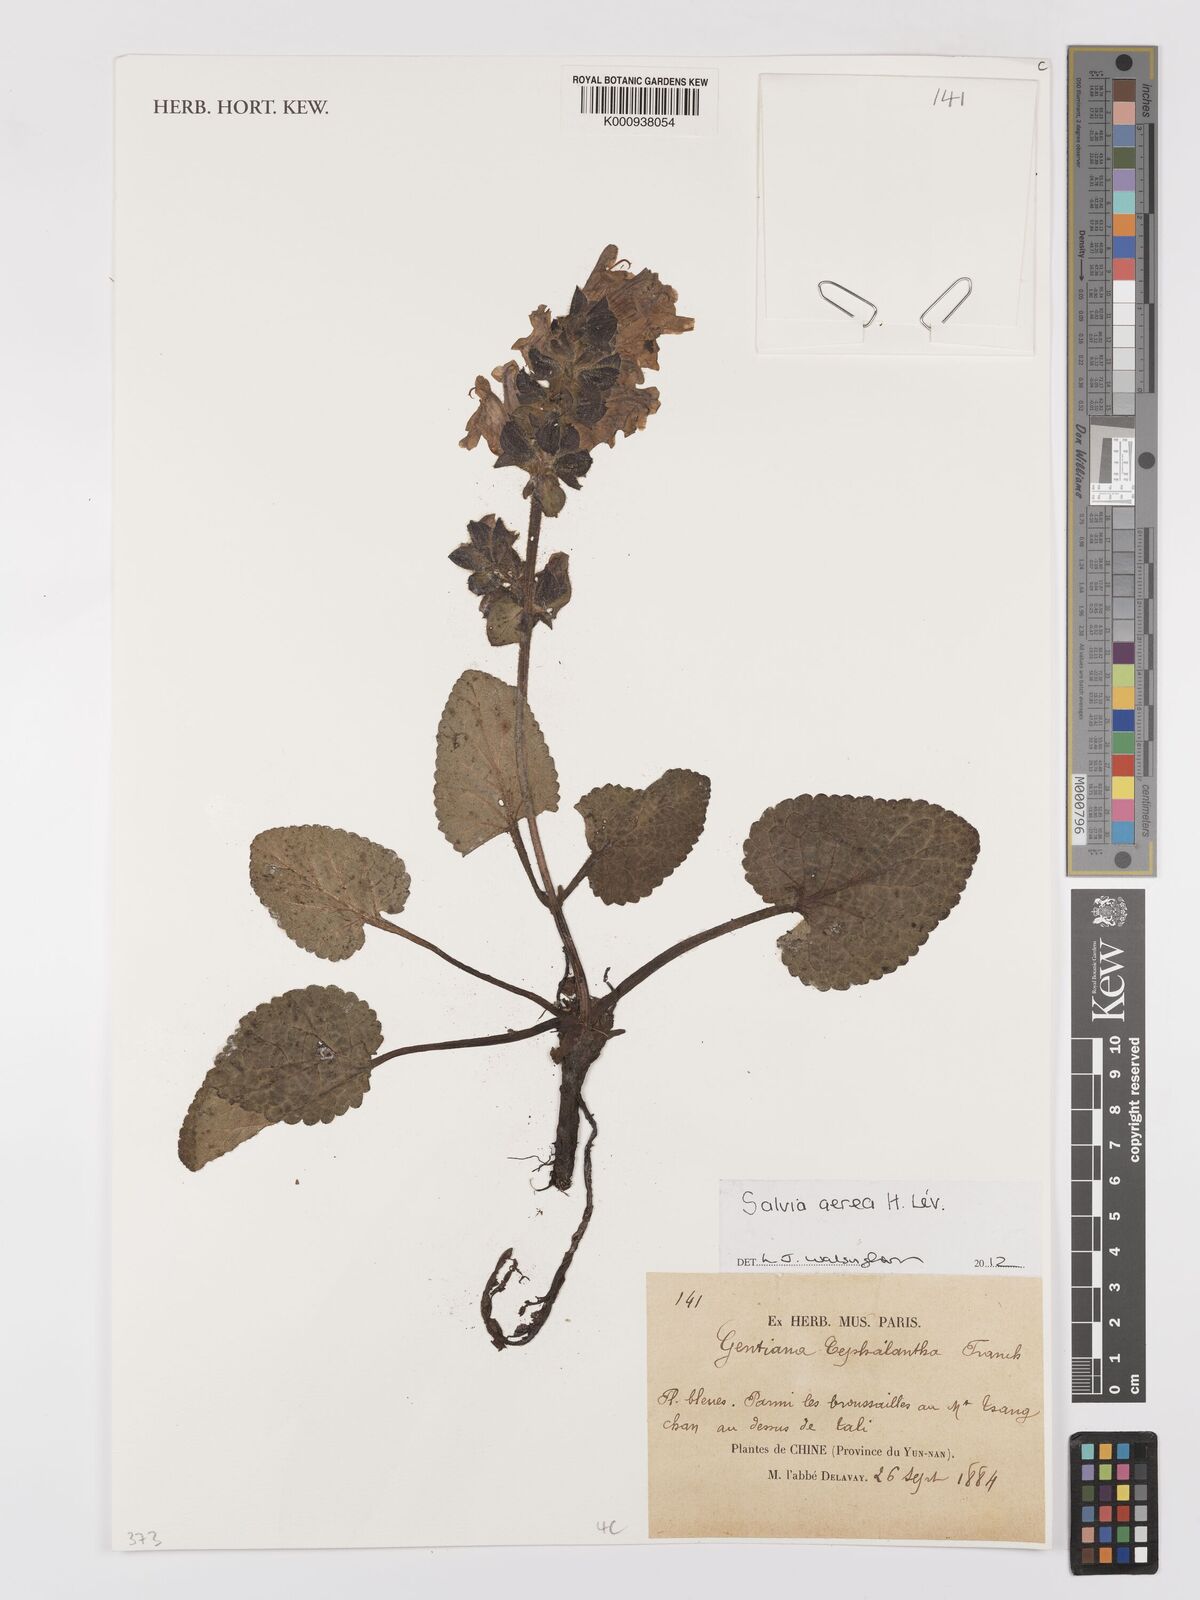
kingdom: Plantae
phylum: Tracheophyta
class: Magnoliopsida
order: Lamiales
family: Lamiaceae
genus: Salvia
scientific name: Salvia aerea
